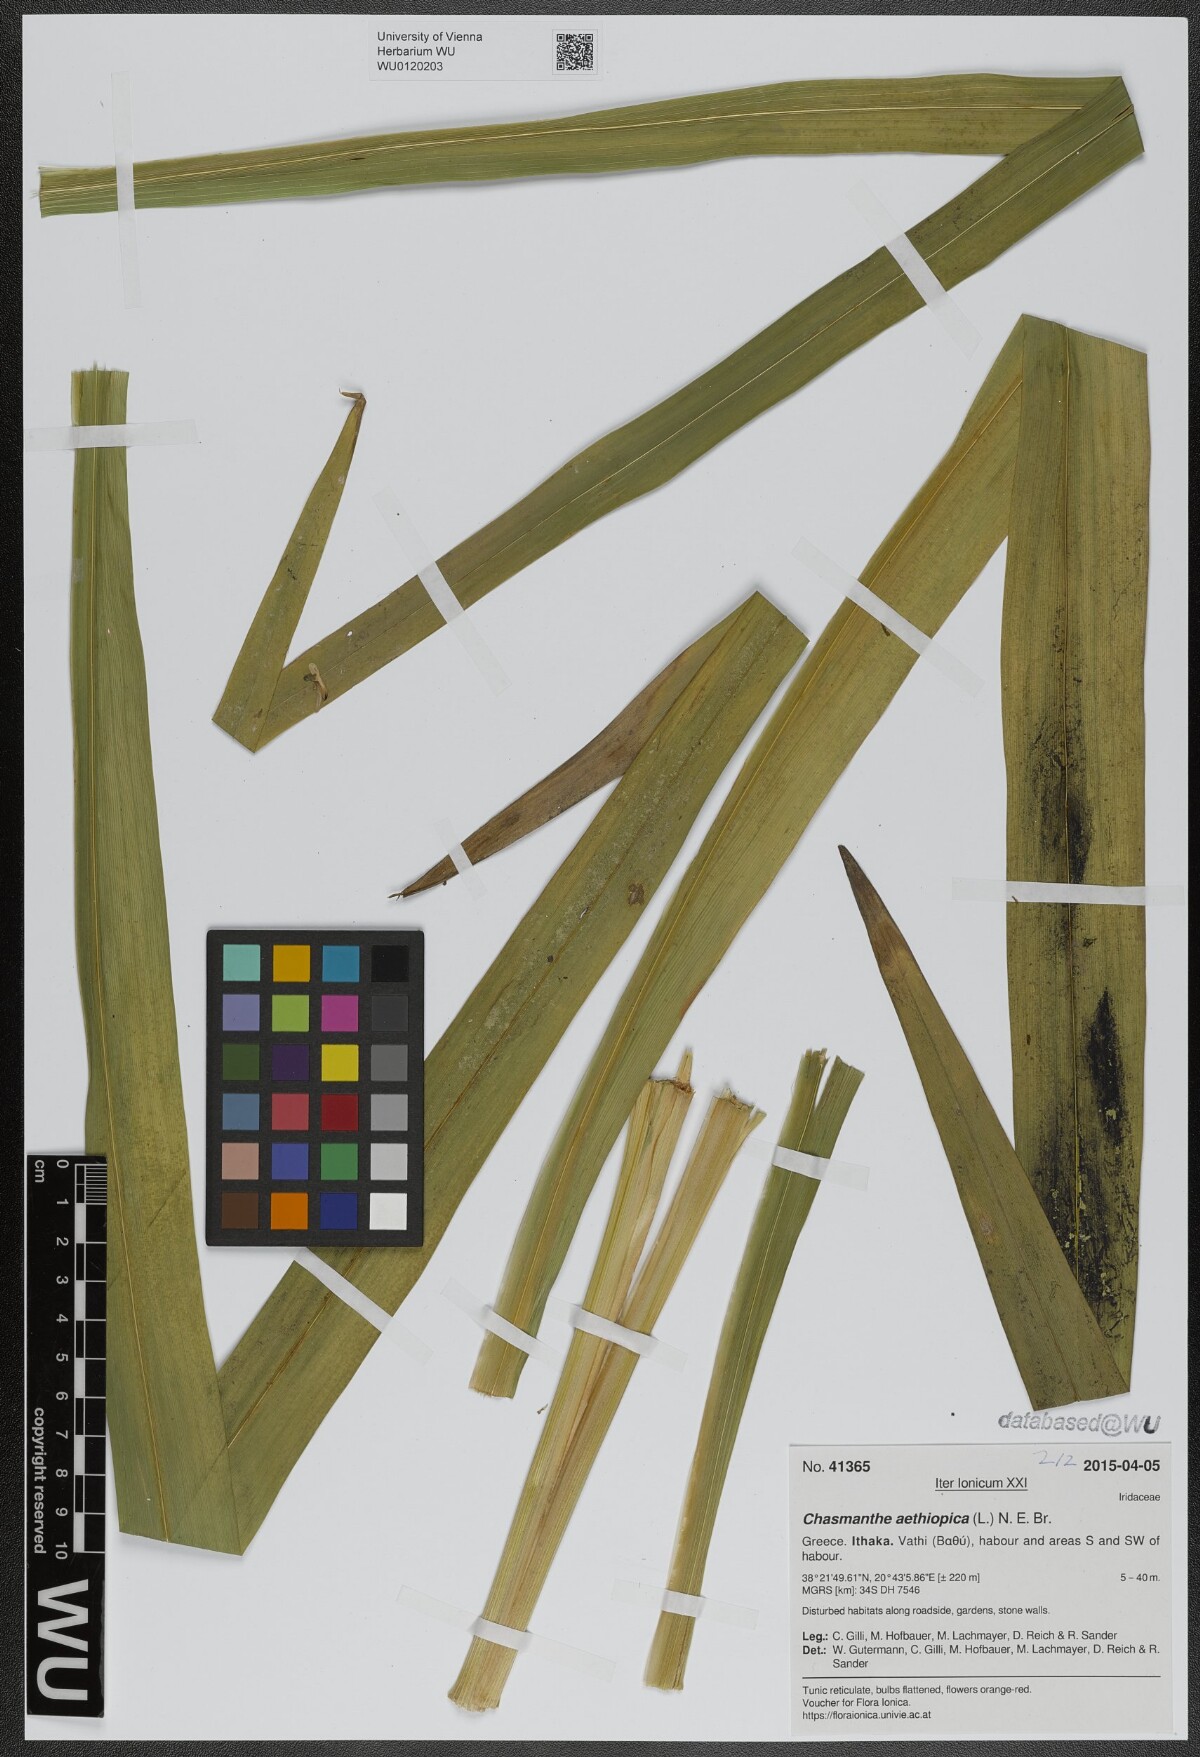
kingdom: Plantae
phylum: Tracheophyta
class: Liliopsida
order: Asparagales
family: Iridaceae
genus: Chasmanthe
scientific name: Chasmanthe floribunda
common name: African cornflag
